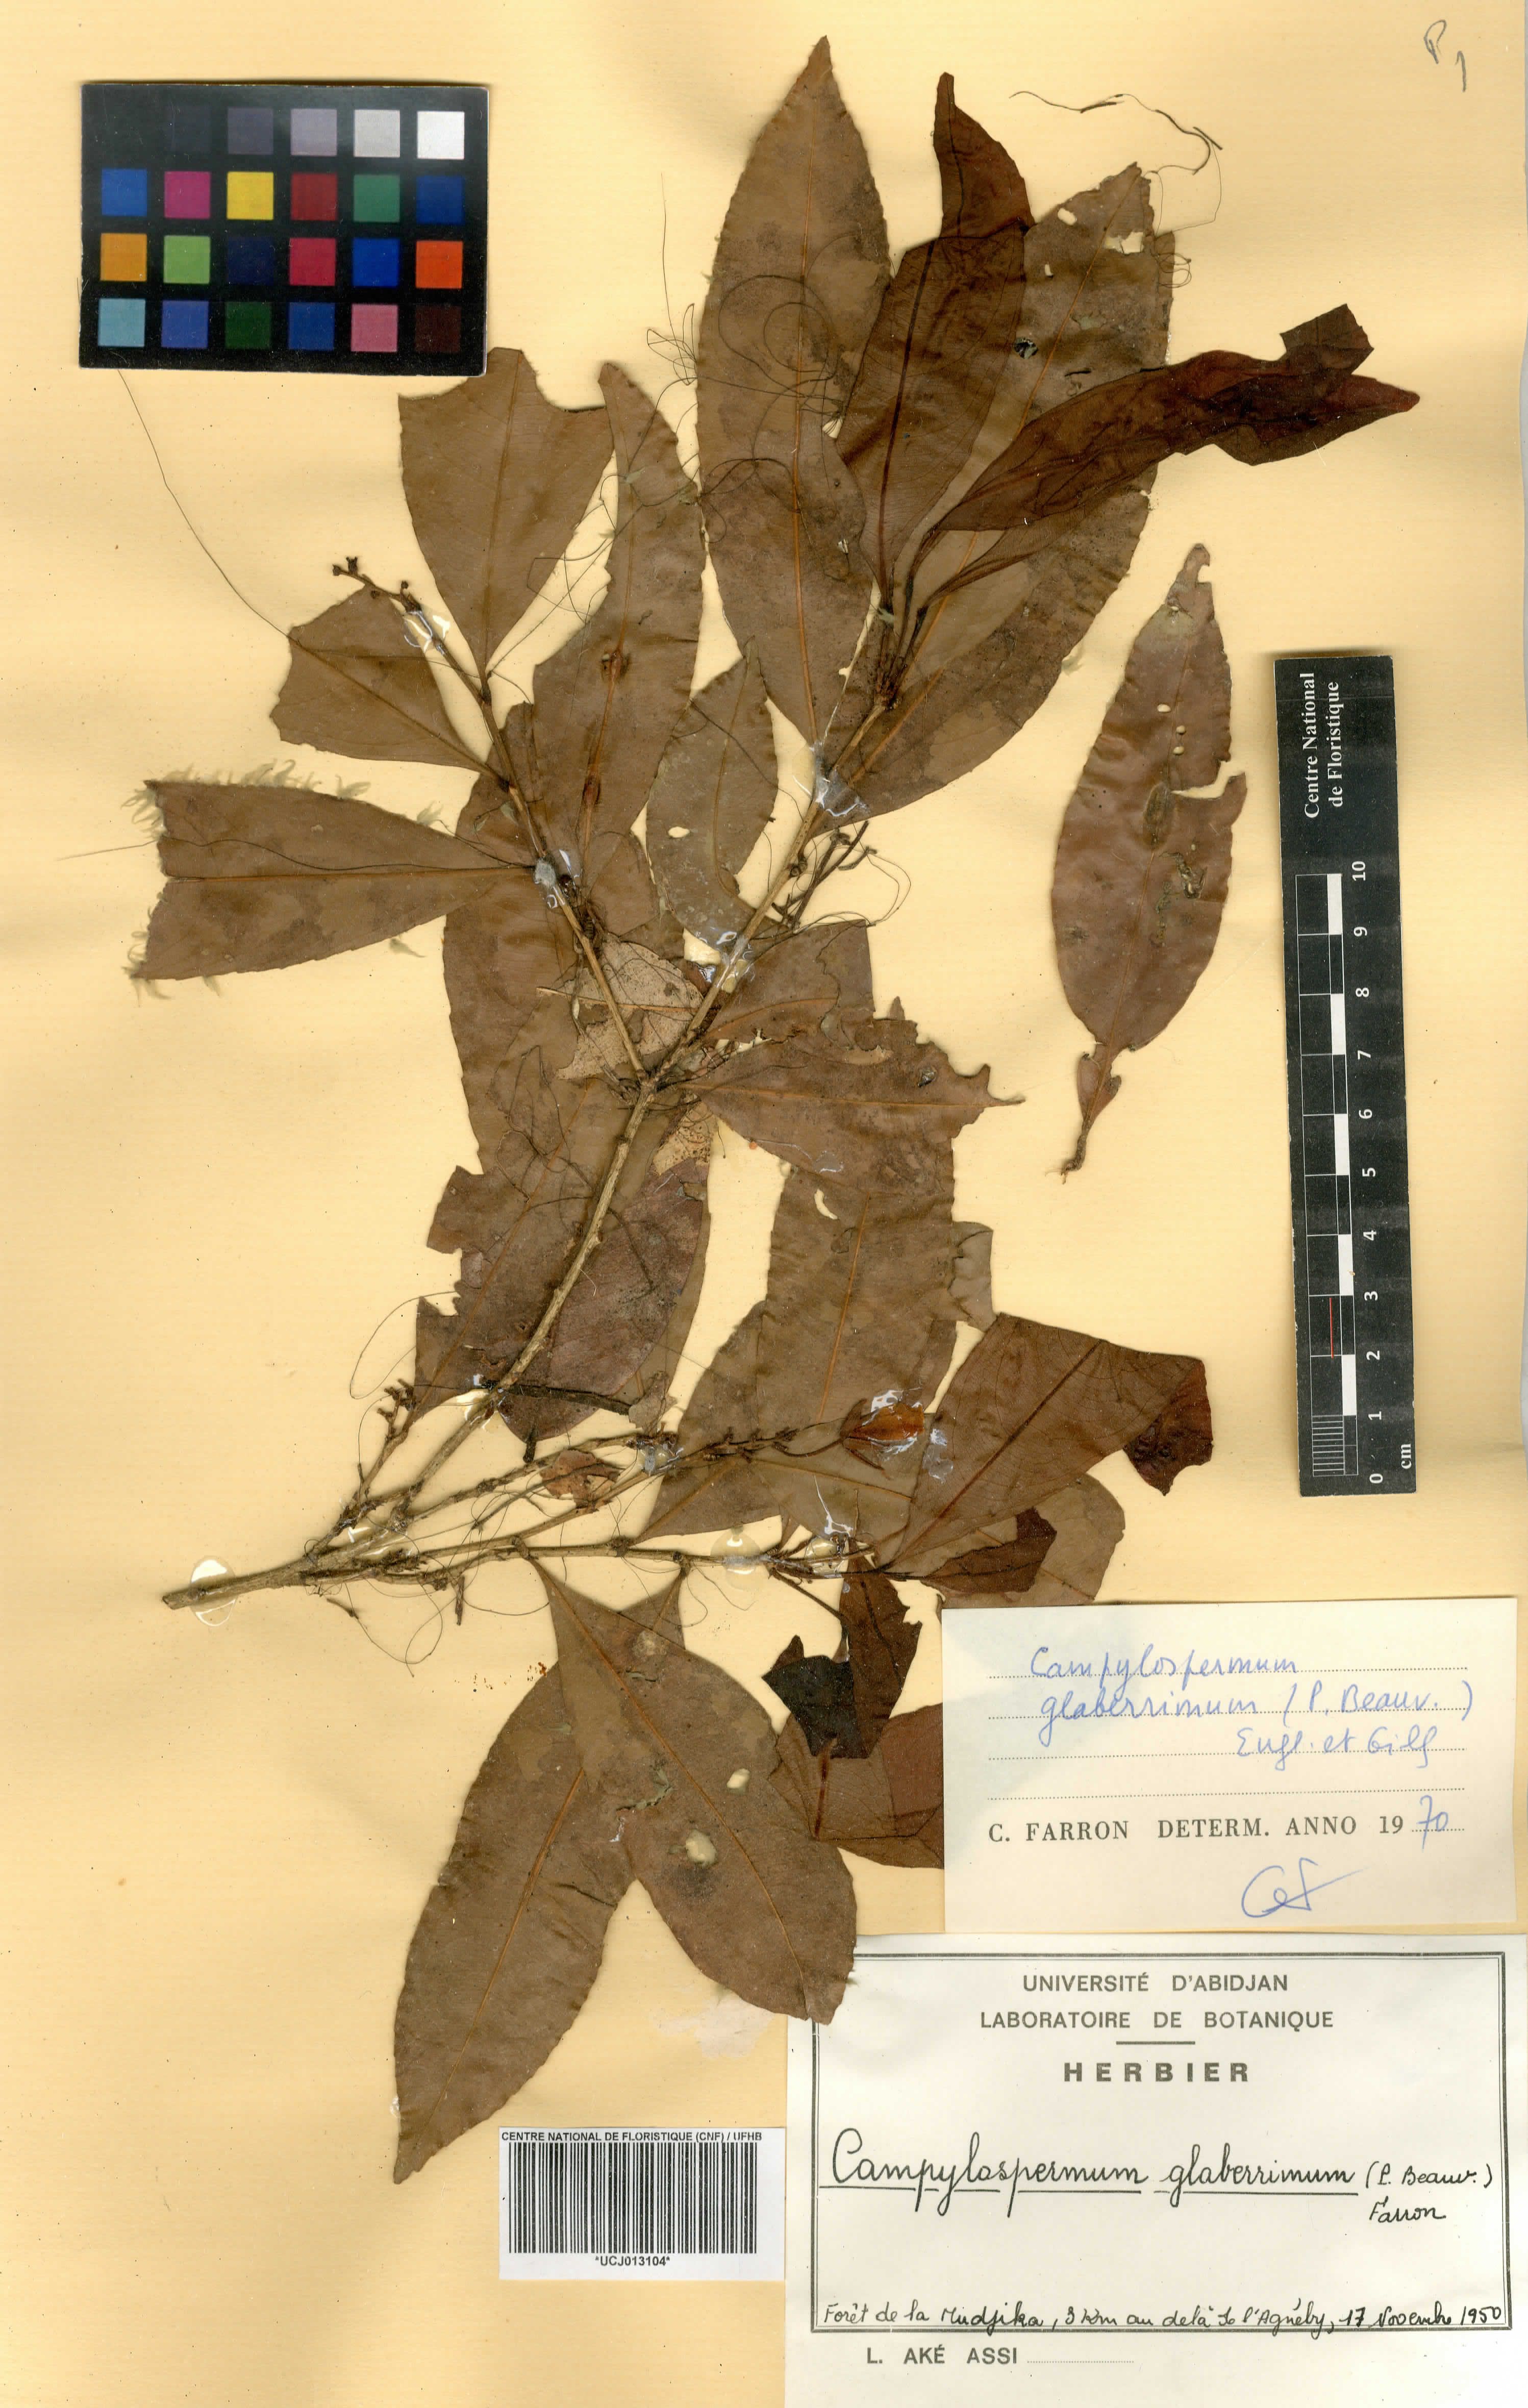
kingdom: Plantae
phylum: Tracheophyta
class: Magnoliopsida
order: Malpighiales
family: Ochnaceae
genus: Campylospermum
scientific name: Campylospermum glaberrimum
